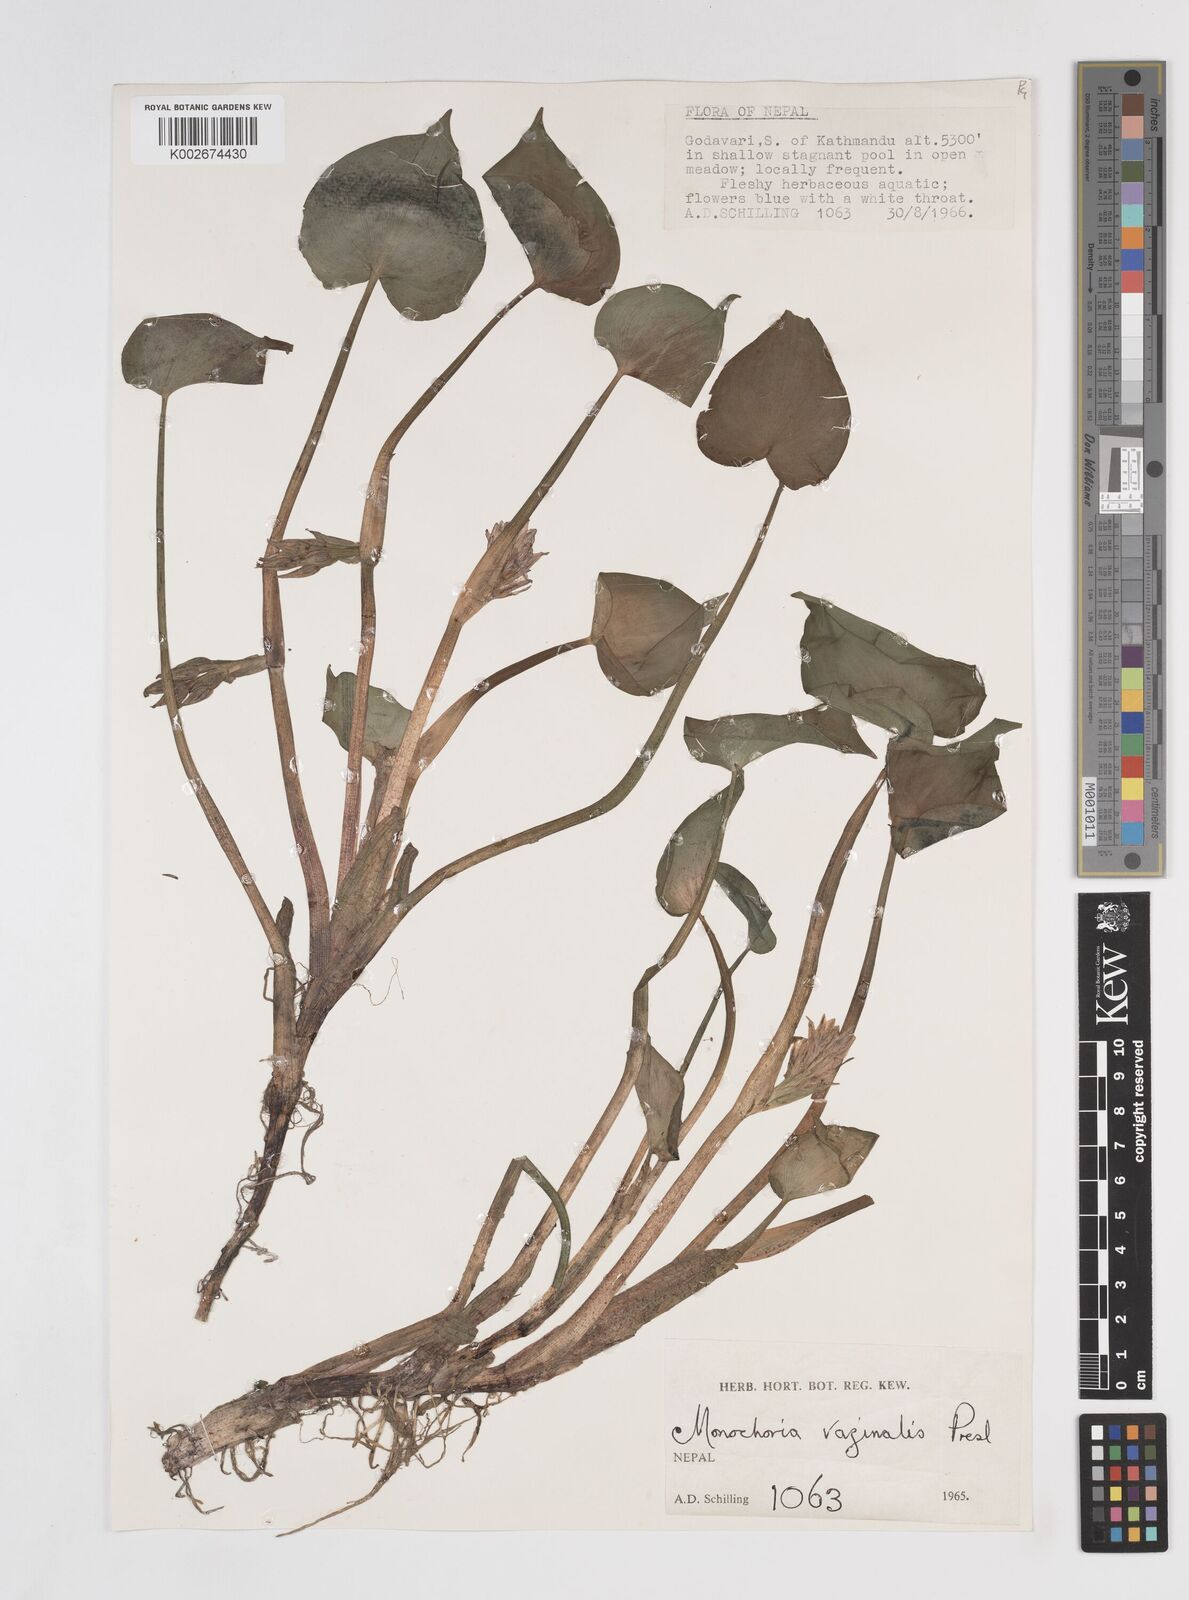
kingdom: Plantae
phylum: Tracheophyta
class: Liliopsida
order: Commelinales
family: Pontederiaceae
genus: Pontederia
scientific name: Pontederia vaginalis
